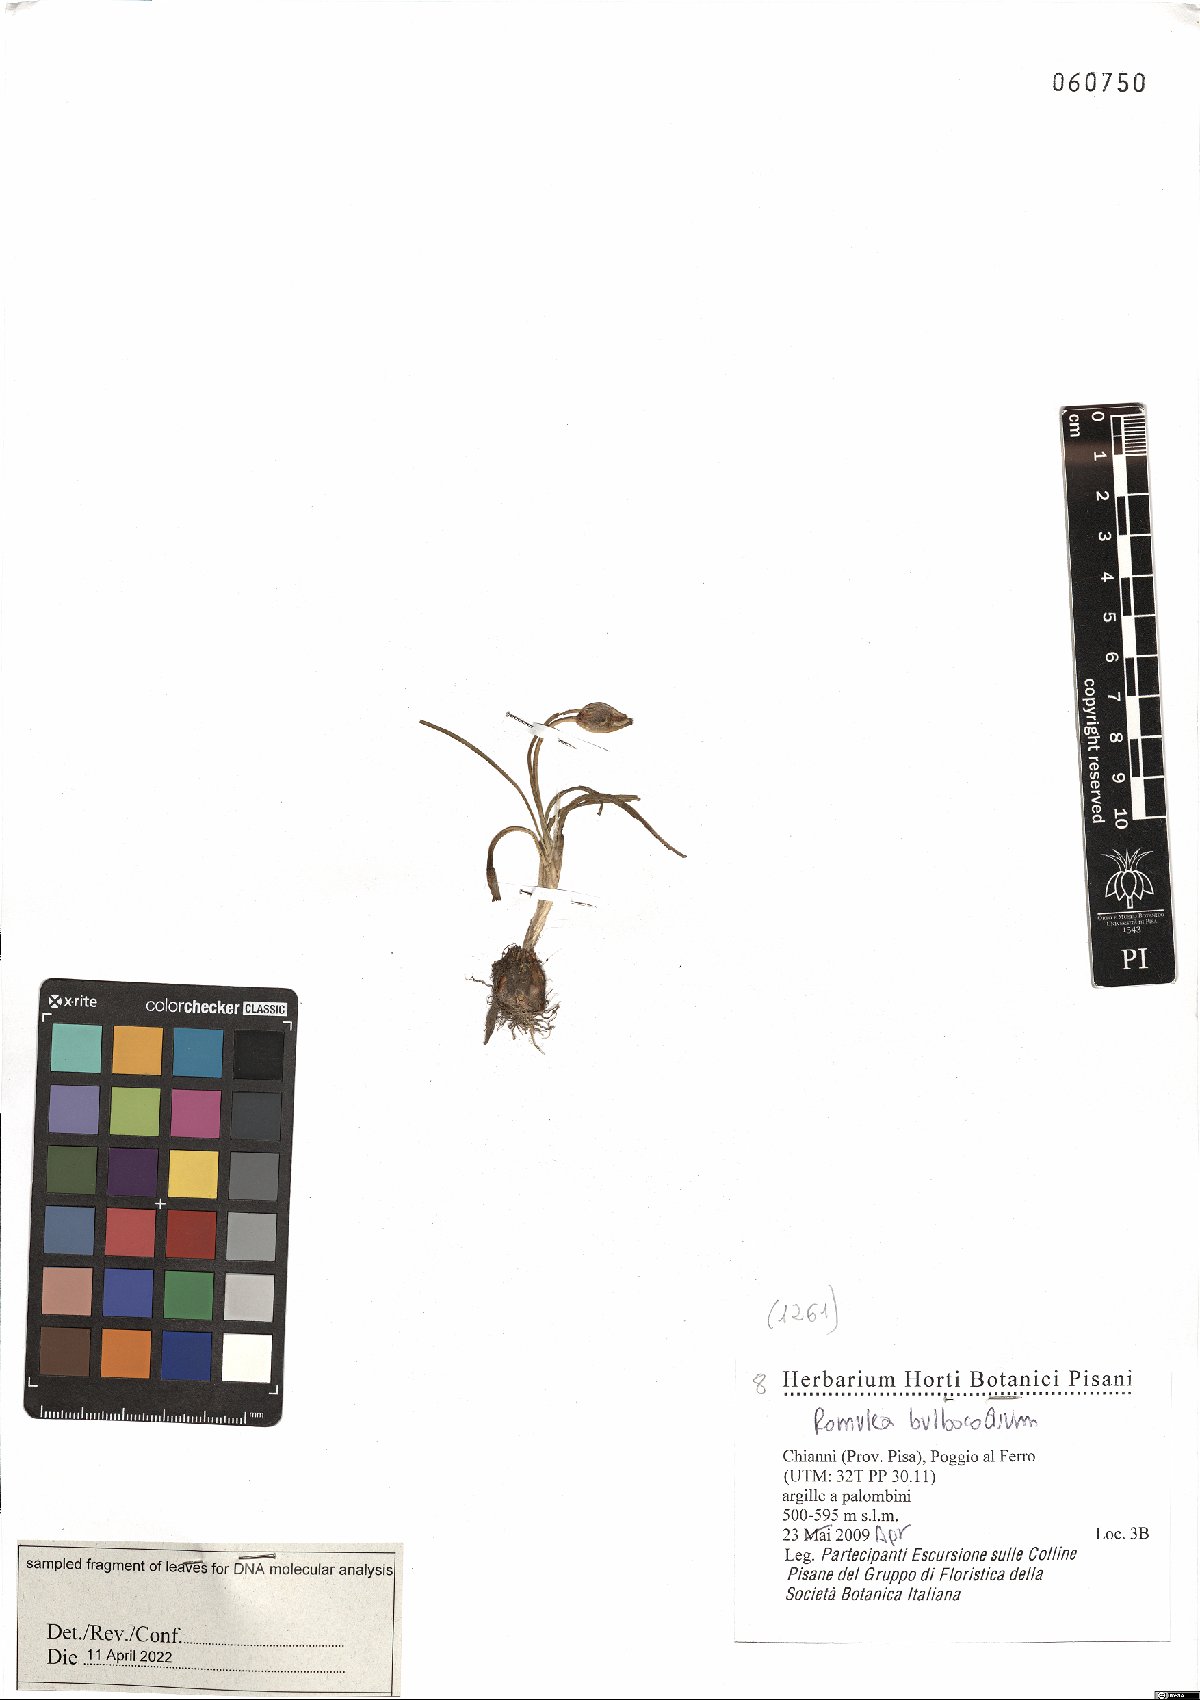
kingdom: Plantae
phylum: Tracheophyta
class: Liliopsida
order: Asparagales
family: Iridaceae
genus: Romulea
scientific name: Romulea bulbocodium
